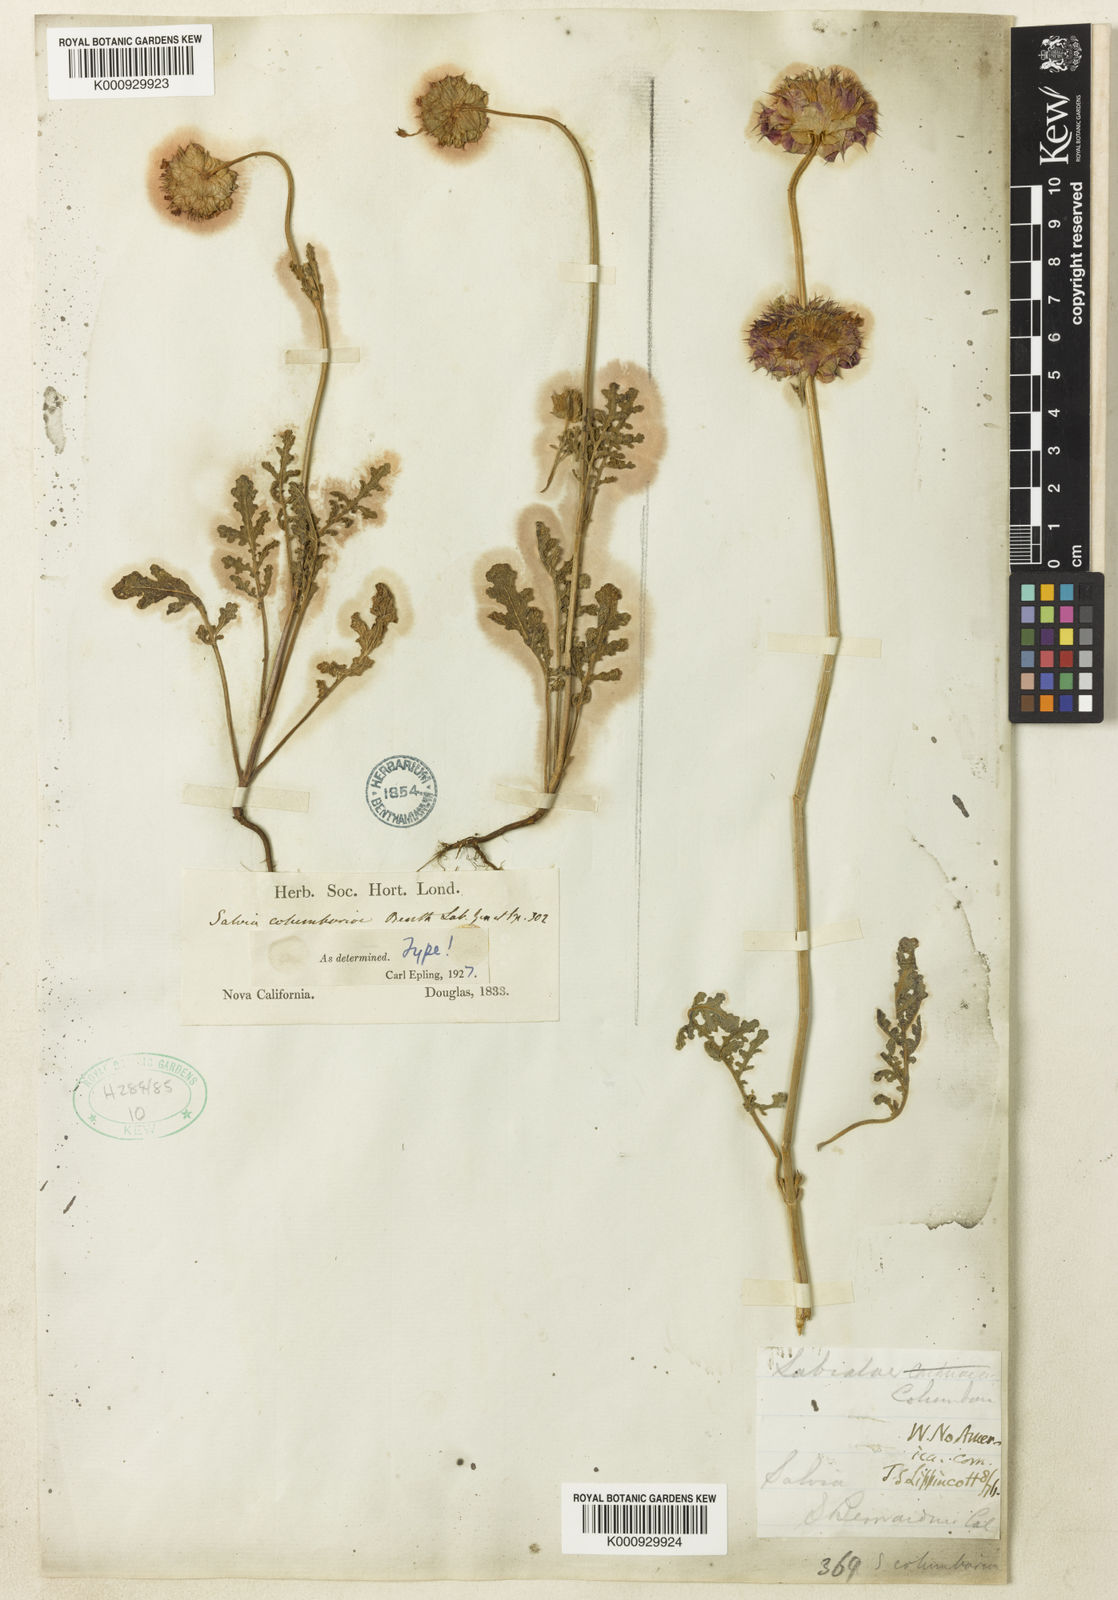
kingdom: Plantae
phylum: Tracheophyta
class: Magnoliopsida
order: Lamiales
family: Lamiaceae
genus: Salvia
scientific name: Salvia columbariae
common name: Chia
